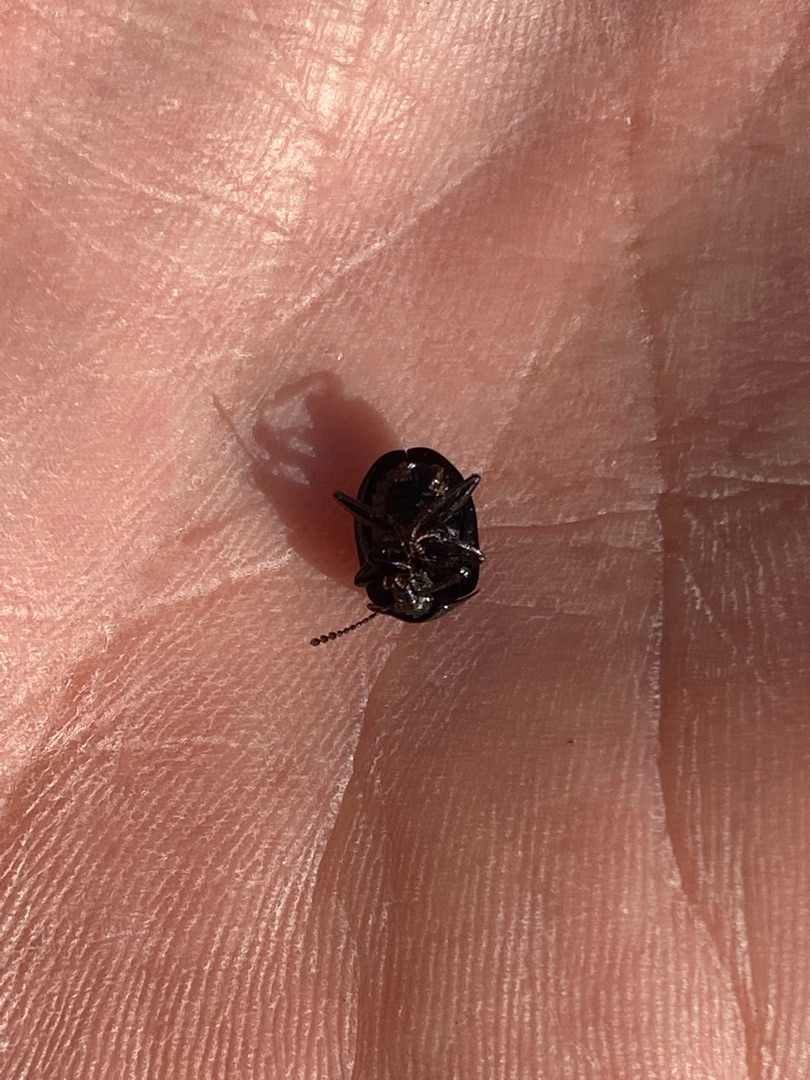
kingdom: Animalia
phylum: Arthropoda
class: Insecta
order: Coleoptera
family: Staphylinidae
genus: Silpha
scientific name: Silpha atrata
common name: Snegleådselbille
